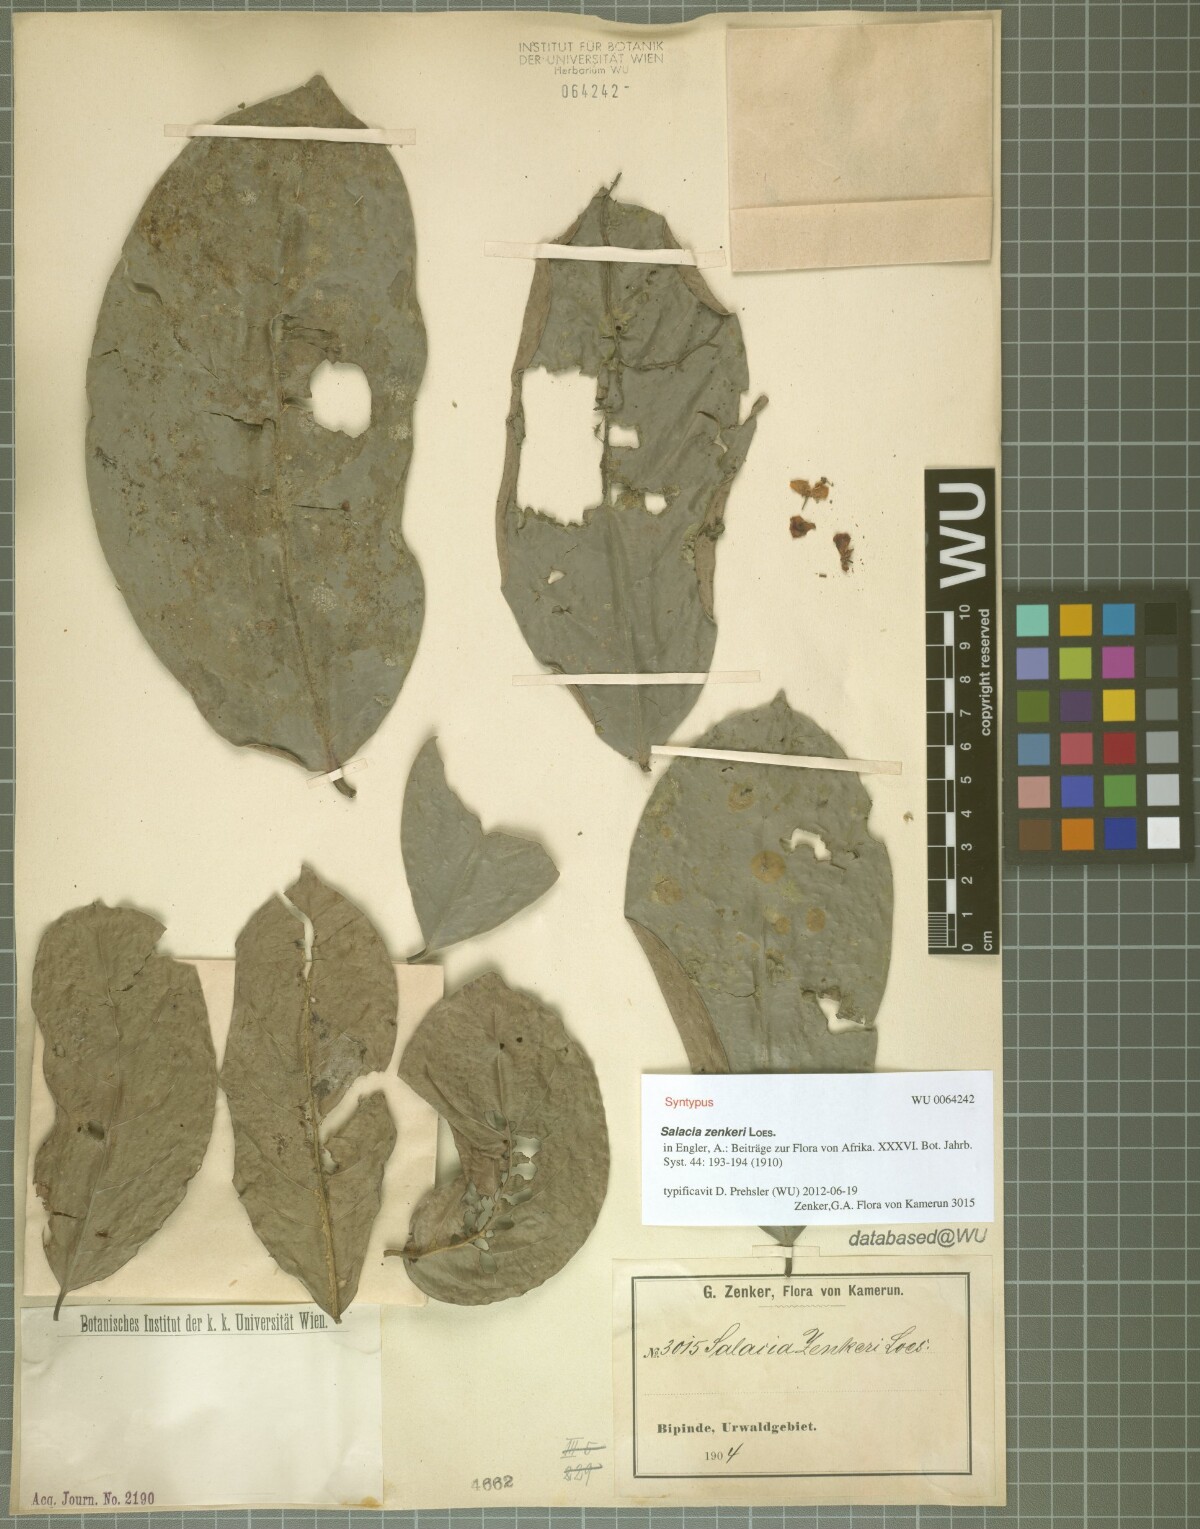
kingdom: Plantae
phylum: Tracheophyta
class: Magnoliopsida
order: Celastrales
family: Celastraceae
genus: Salacia
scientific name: Salacia zenkeri
